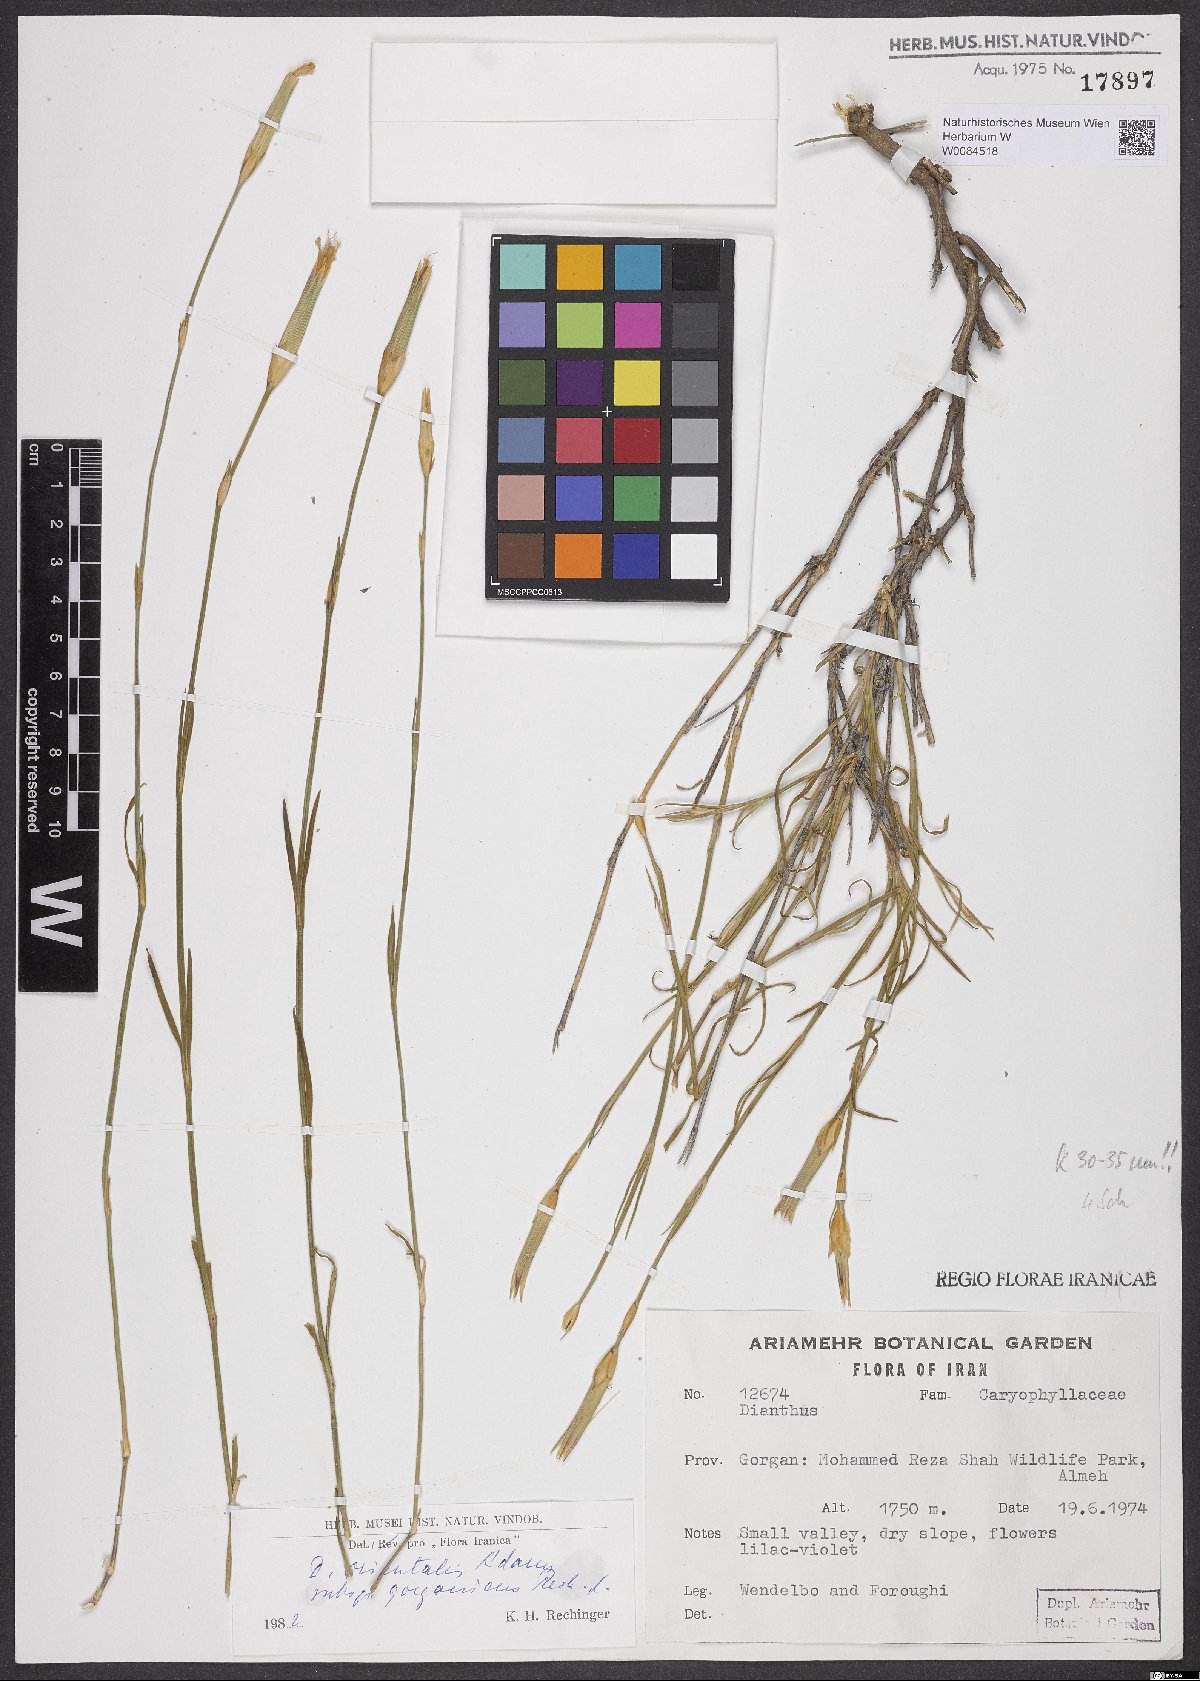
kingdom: Plantae
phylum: Tracheophyta
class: Magnoliopsida
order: Caryophyllales
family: Caryophyllaceae
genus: Dianthus
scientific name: Dianthus orientalis
